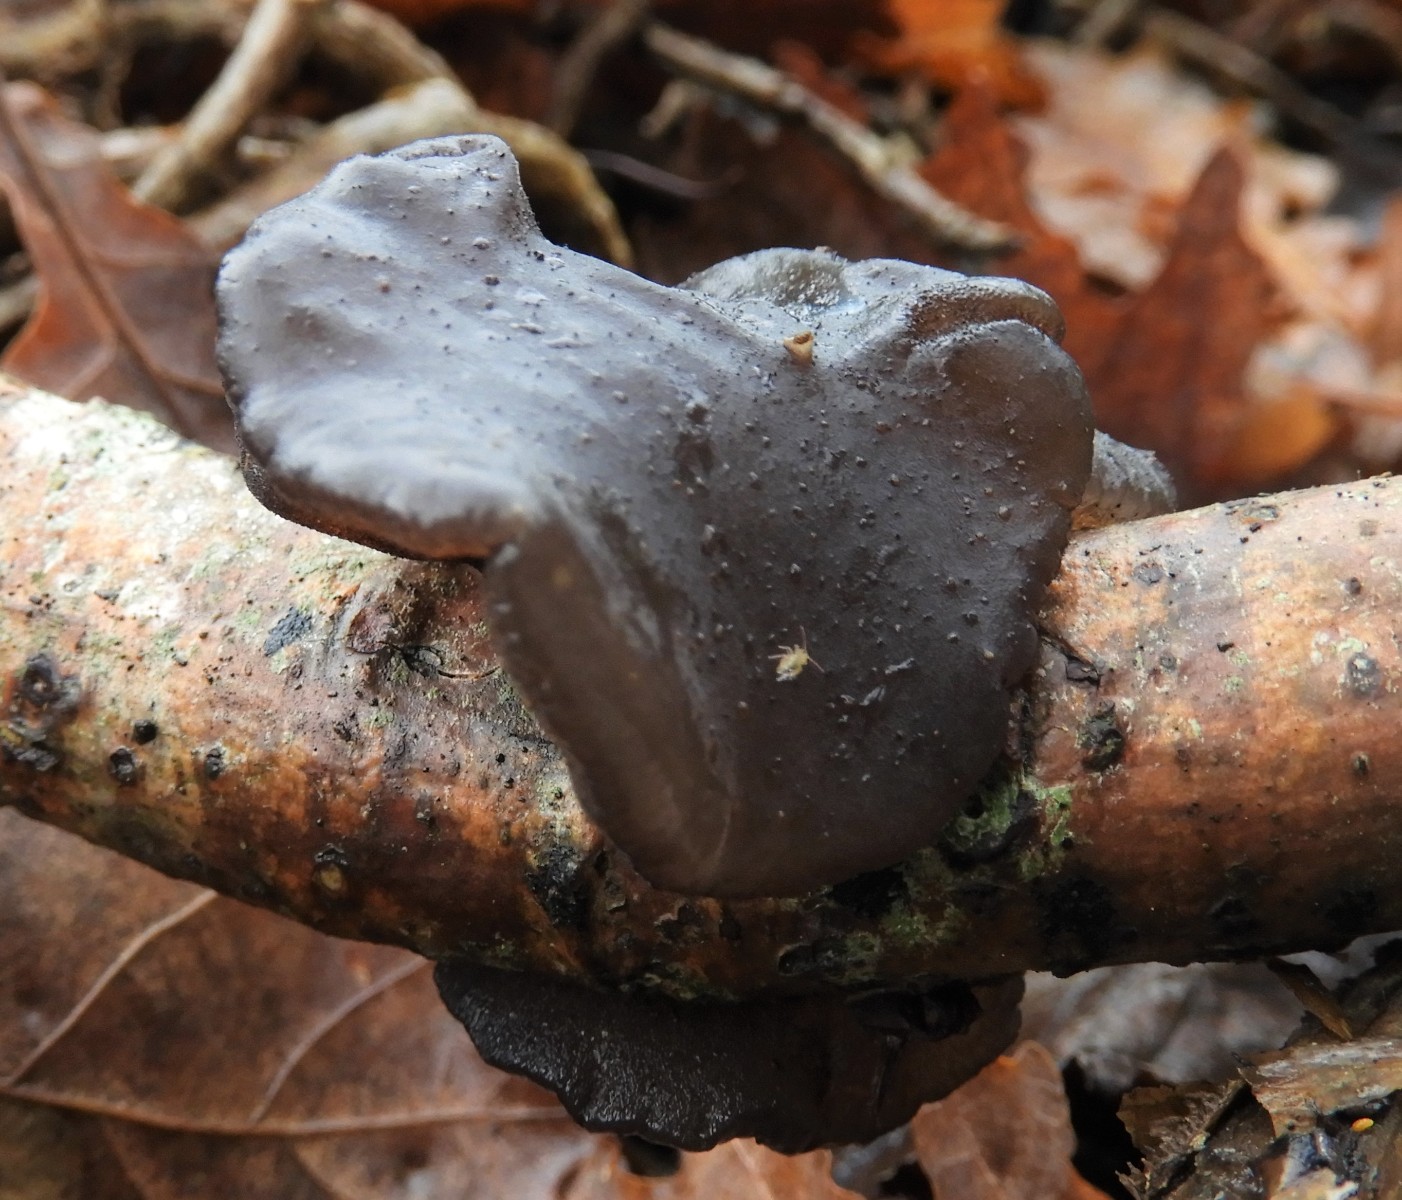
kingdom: Fungi
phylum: Basidiomycota
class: Agaricomycetes
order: Auriculariales
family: Auriculariaceae
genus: Exidia
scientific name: Exidia glandulosa
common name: ege-bævretop
